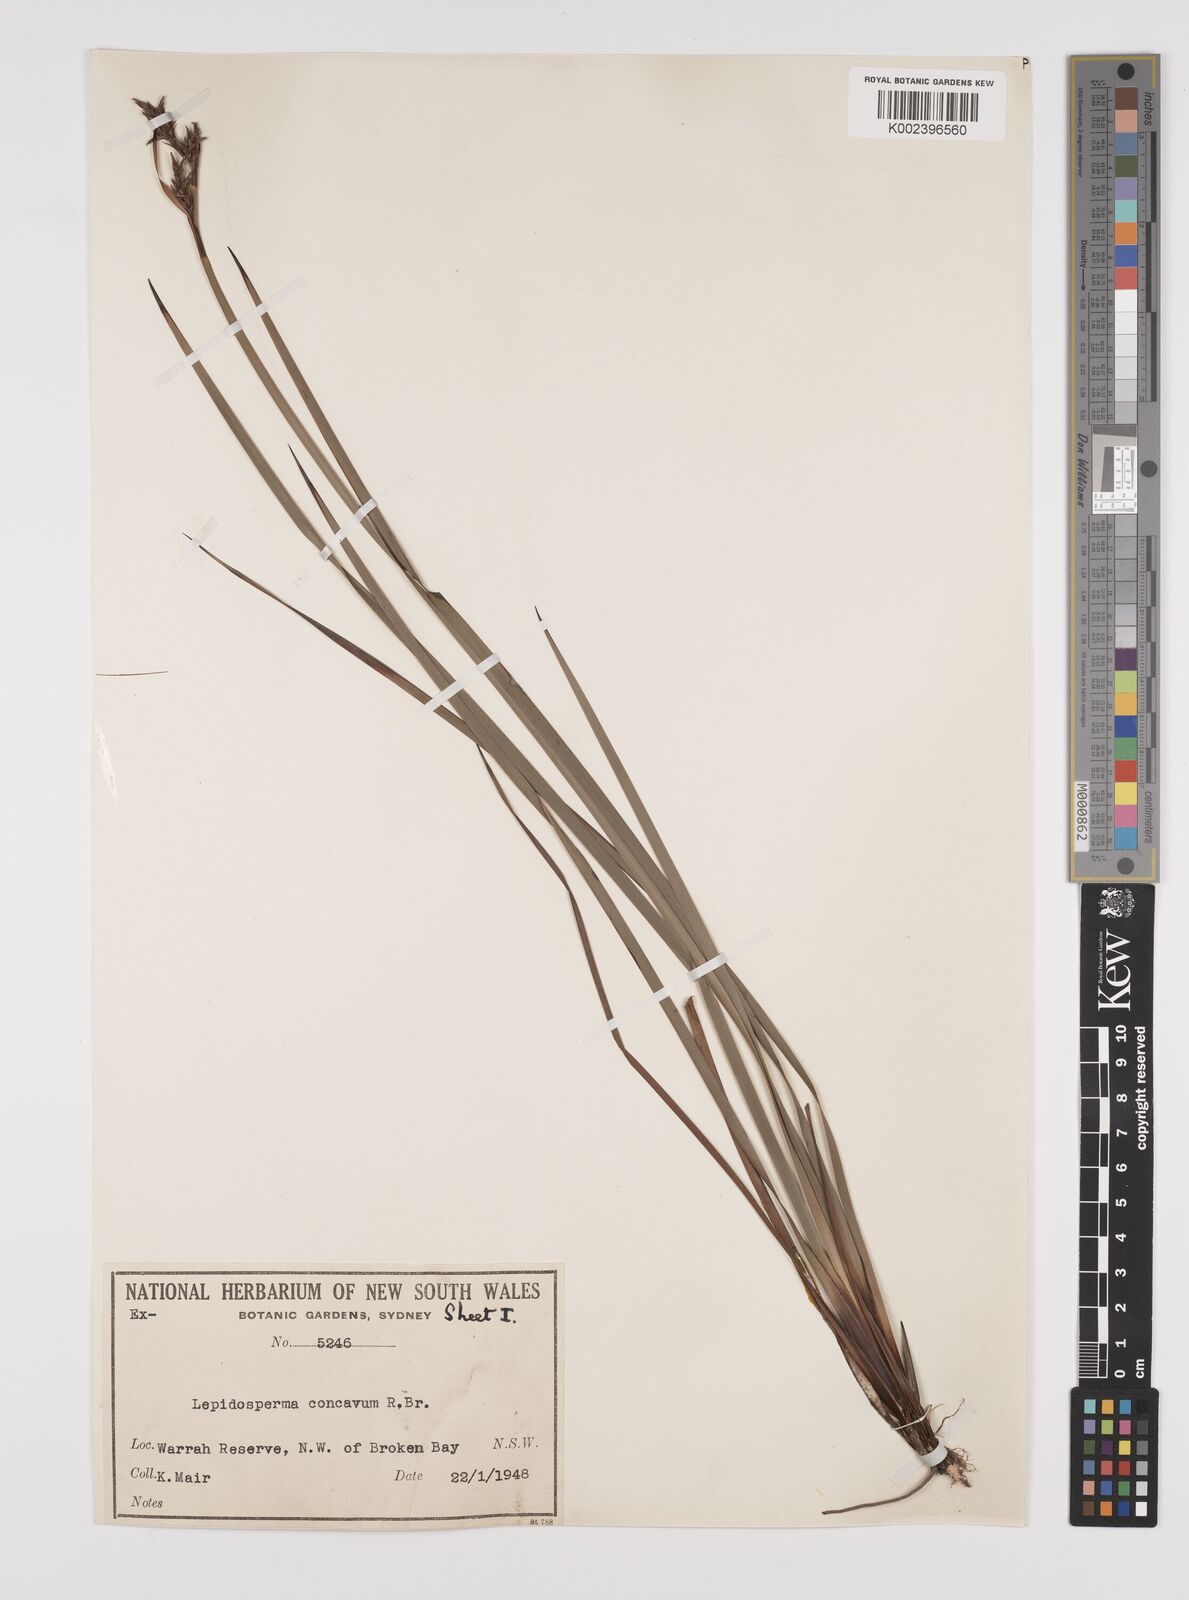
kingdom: Plantae
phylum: Tracheophyta
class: Liliopsida
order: Poales
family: Cyperaceae
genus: Lepidosperma
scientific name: Lepidosperma concavum
